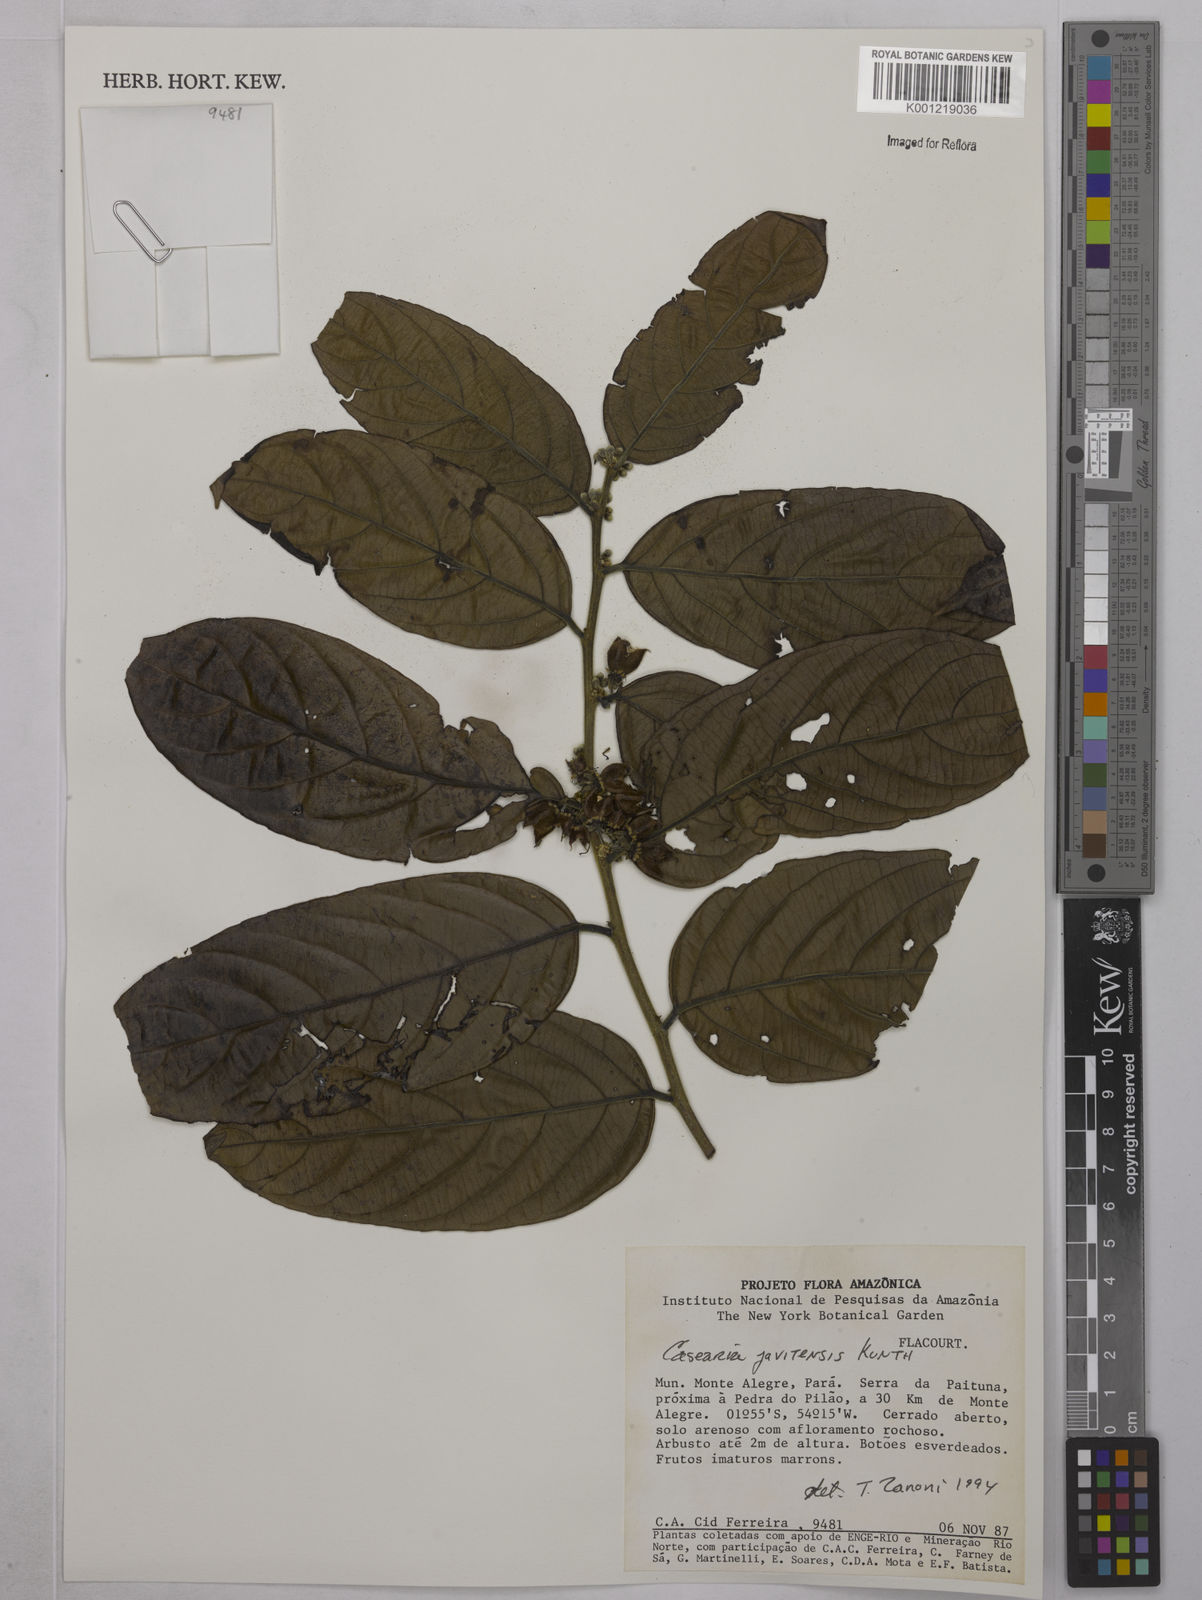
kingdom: Plantae
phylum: Tracheophyta
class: Magnoliopsida
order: Malpighiales
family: Salicaceae
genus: Piparea
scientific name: Piparea multiflora
